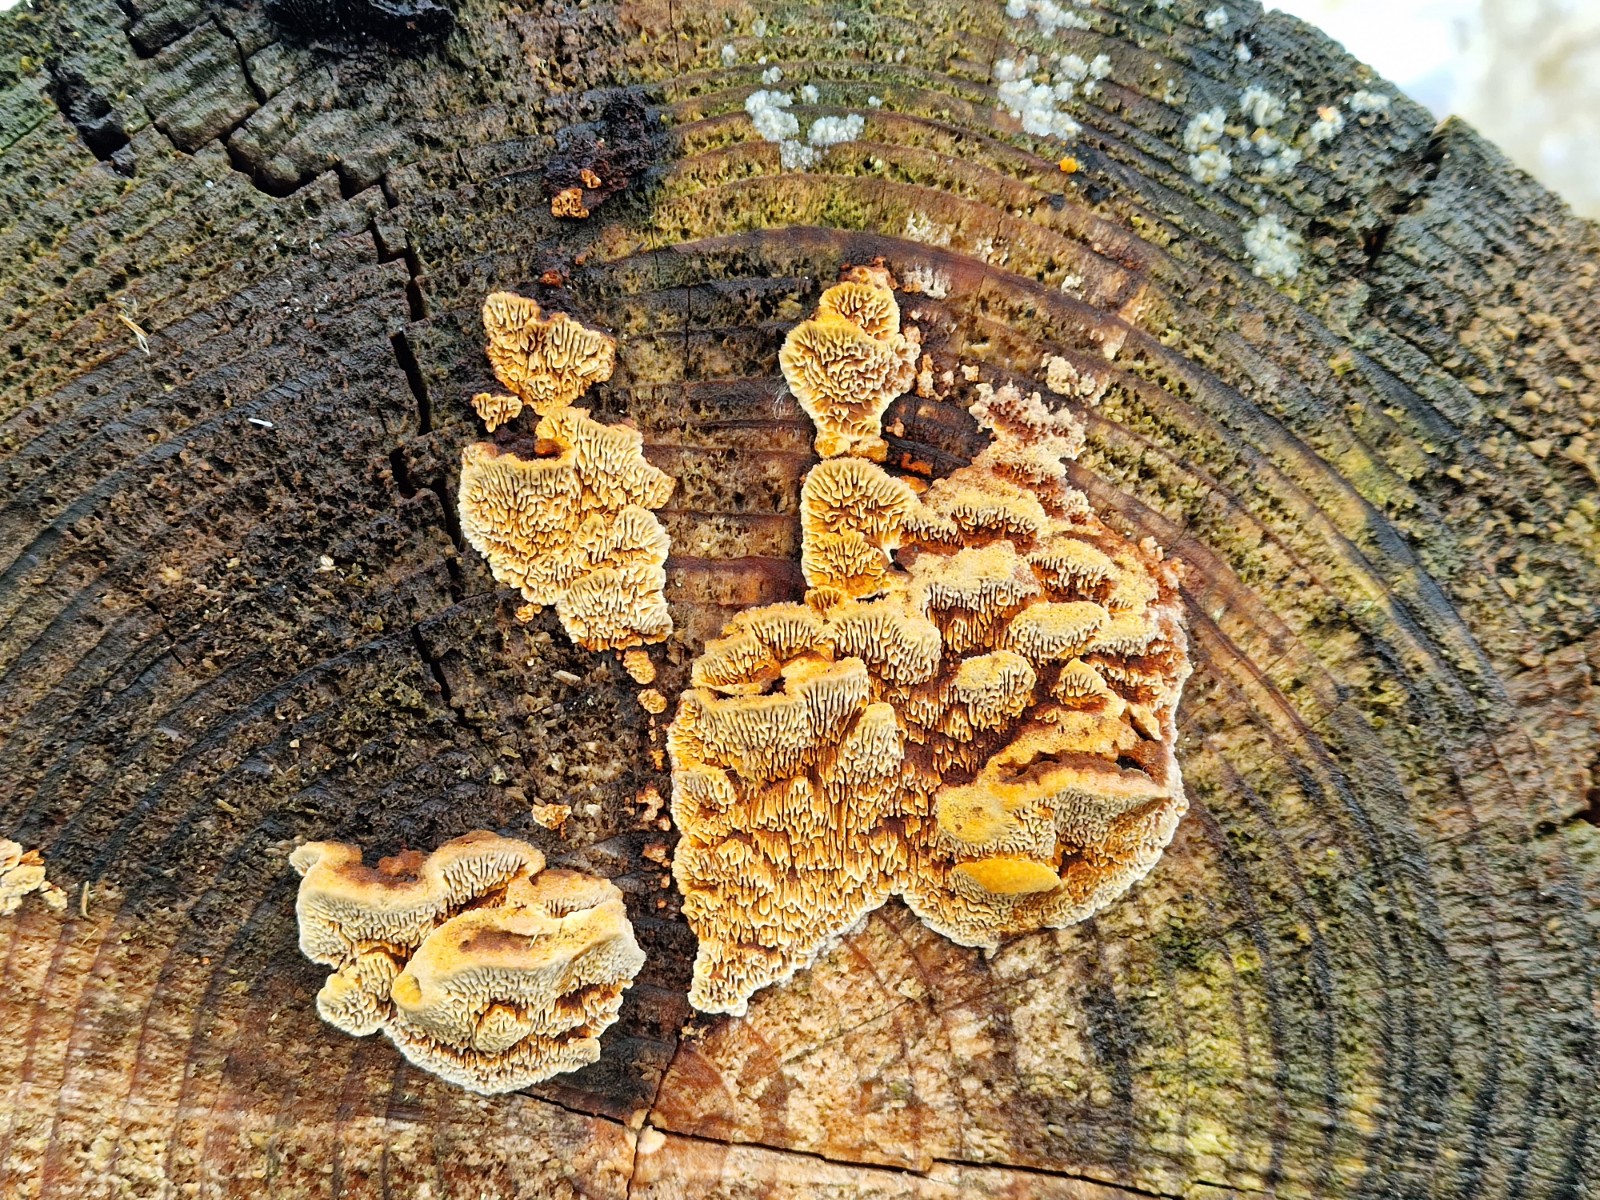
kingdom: Fungi
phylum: Basidiomycota
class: Agaricomycetes
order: Gloeophyllales
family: Gloeophyllaceae
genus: Gloeophyllum
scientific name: Gloeophyllum sepiarium
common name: fyrre-korkhat
